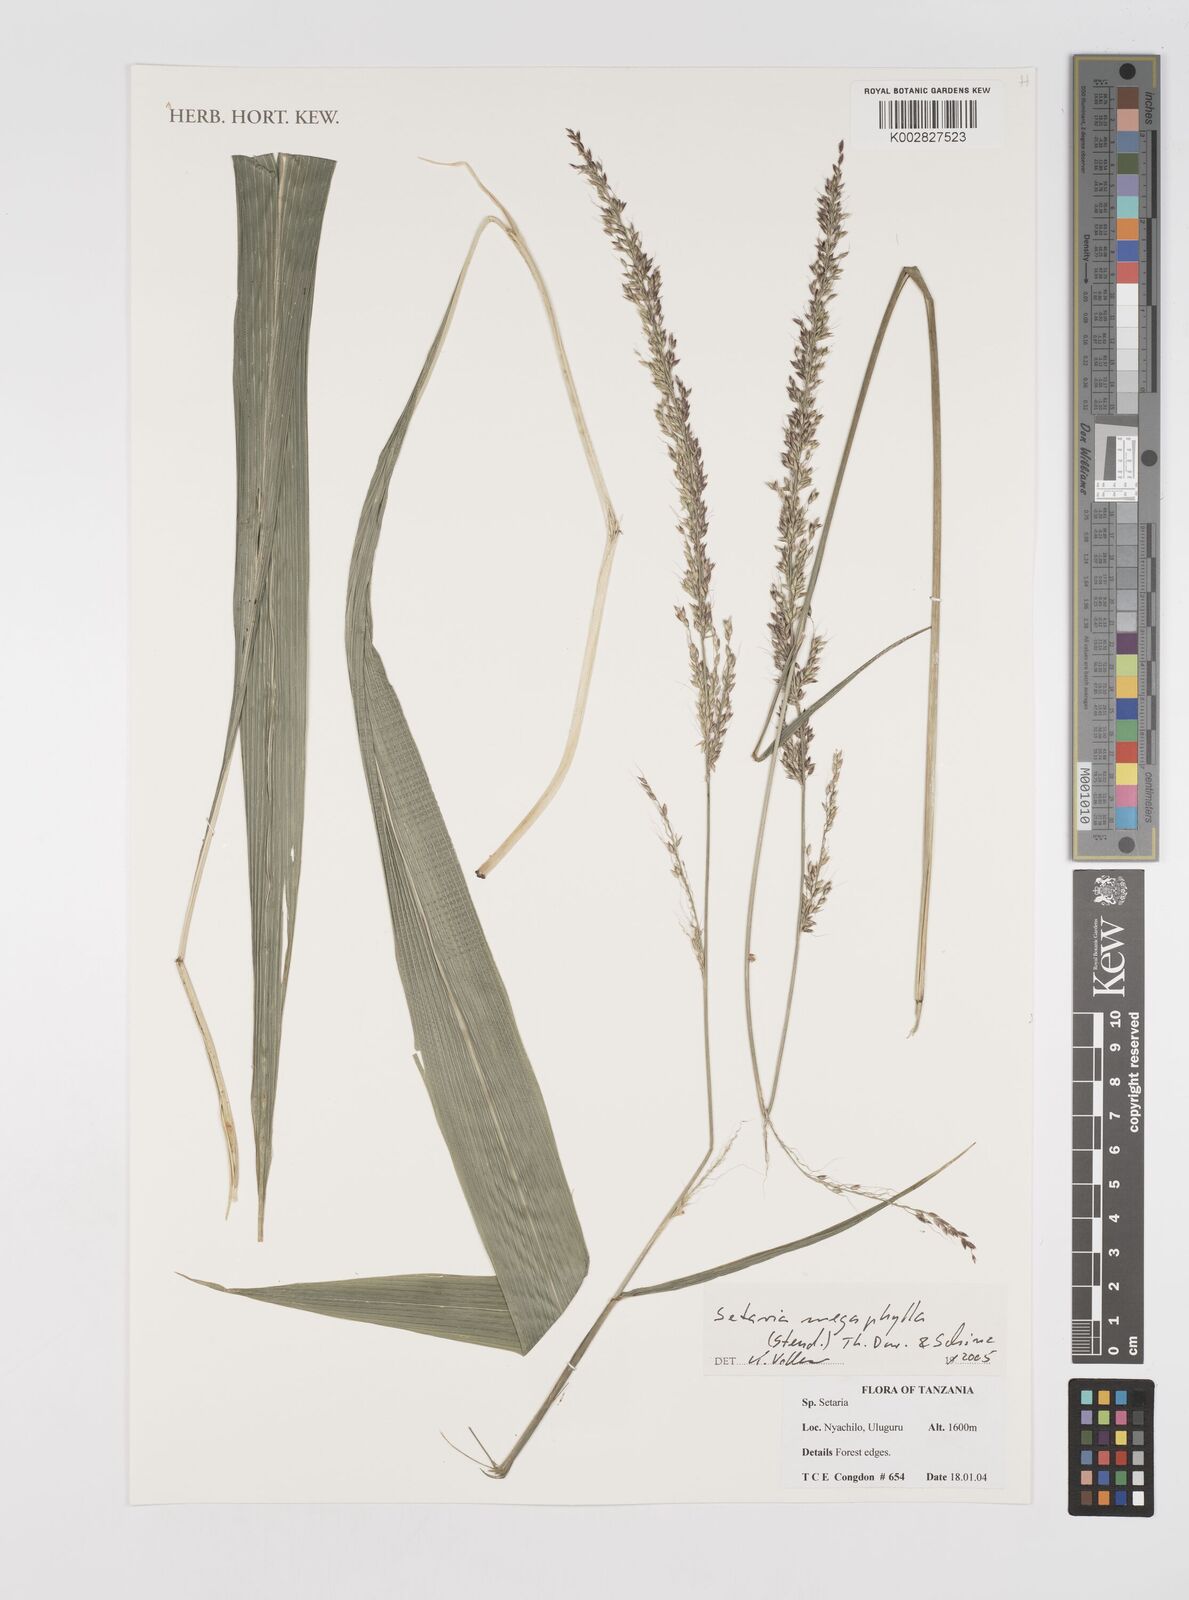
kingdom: Plantae
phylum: Tracheophyta
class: Liliopsida
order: Poales
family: Poaceae
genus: Setaria
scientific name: Setaria megaphylla
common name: Bigleaf bristlegrass
